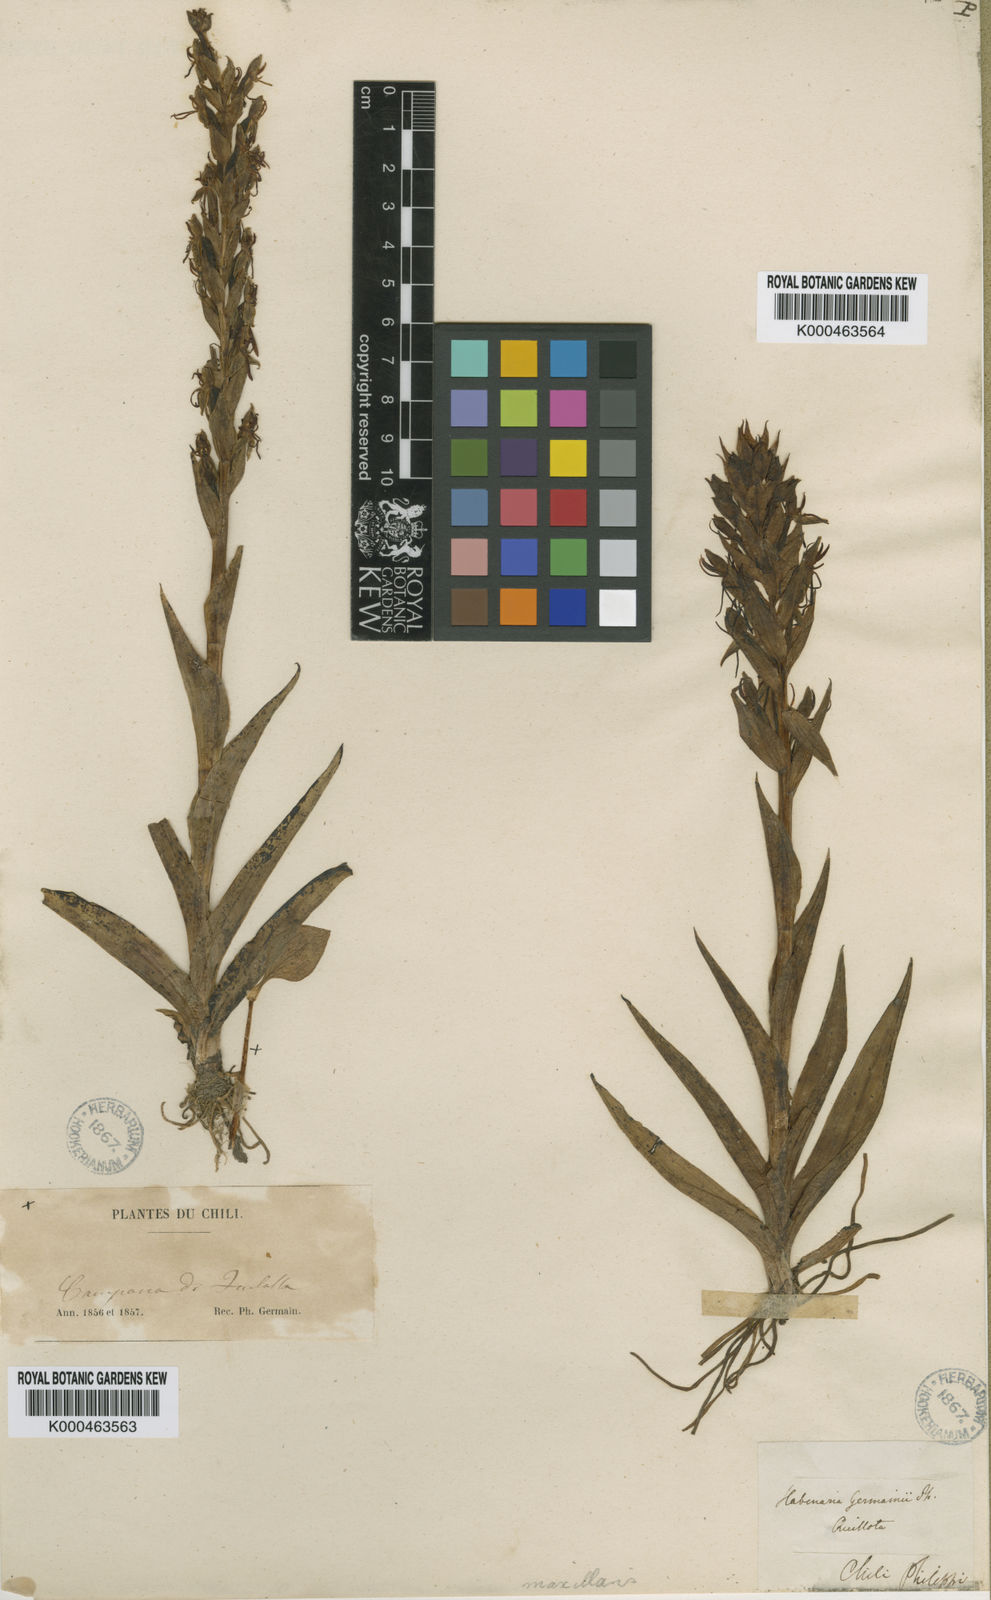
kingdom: Plantae
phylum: Tracheophyta
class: Liliopsida
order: Asparagales
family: Orchidaceae
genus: Habenaria
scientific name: Habenaria repens
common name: Water orchid
